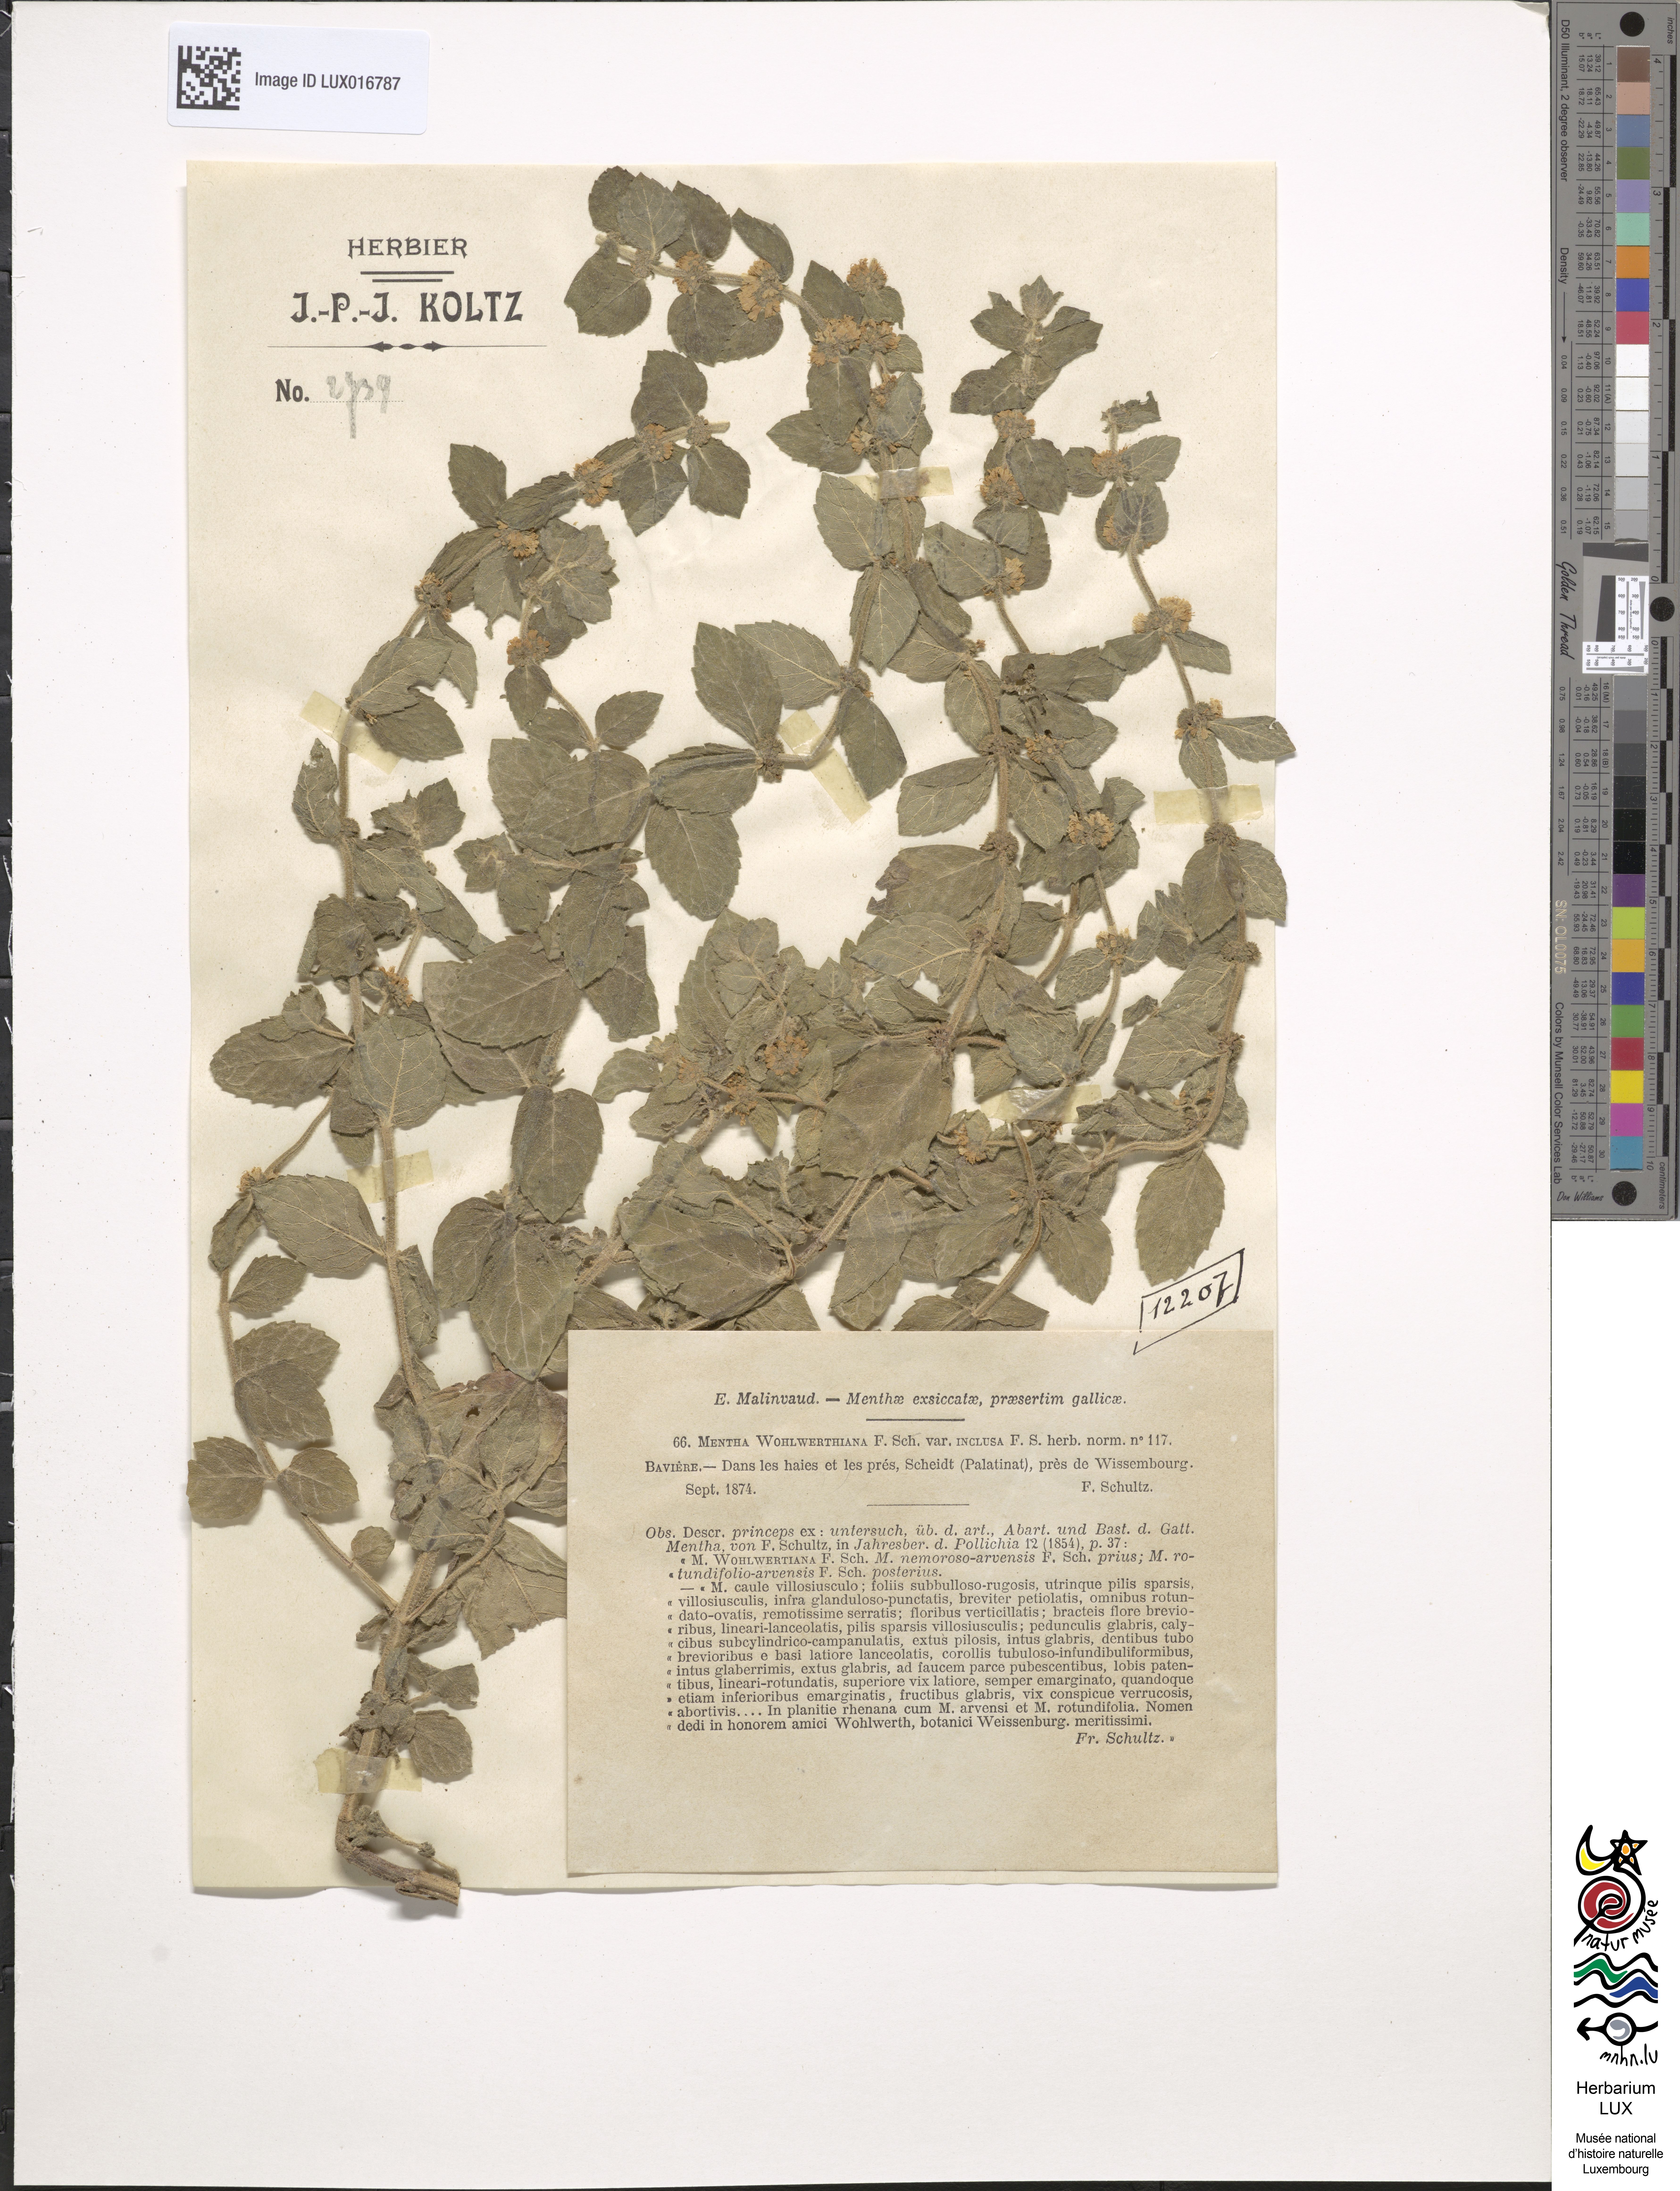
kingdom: Plantae
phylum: Tracheophyta
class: Magnoliopsida
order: Lamiales
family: Lamiaceae
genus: Mentha
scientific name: Mentha carinthiaca
